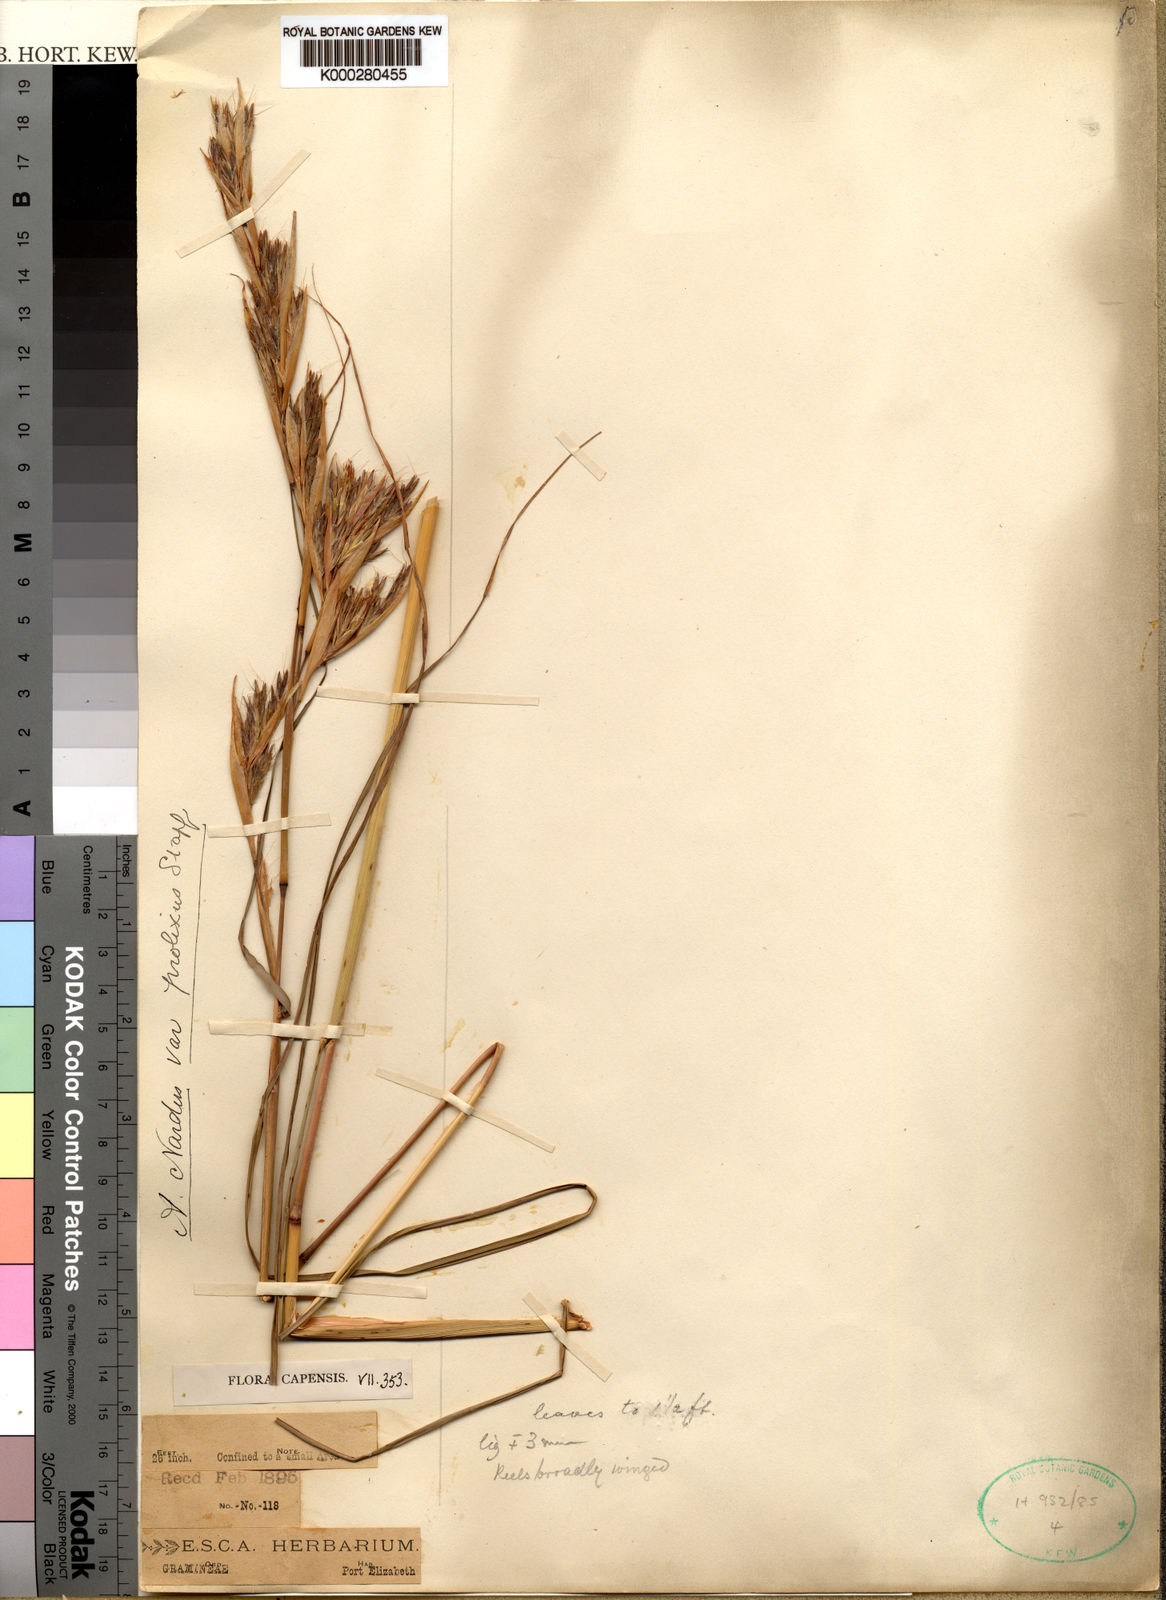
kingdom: Plantae
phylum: Tracheophyta
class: Liliopsida
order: Poales
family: Poaceae
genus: Cymbopogon
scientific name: Cymbopogon nardus
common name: Giant turpentine grass
